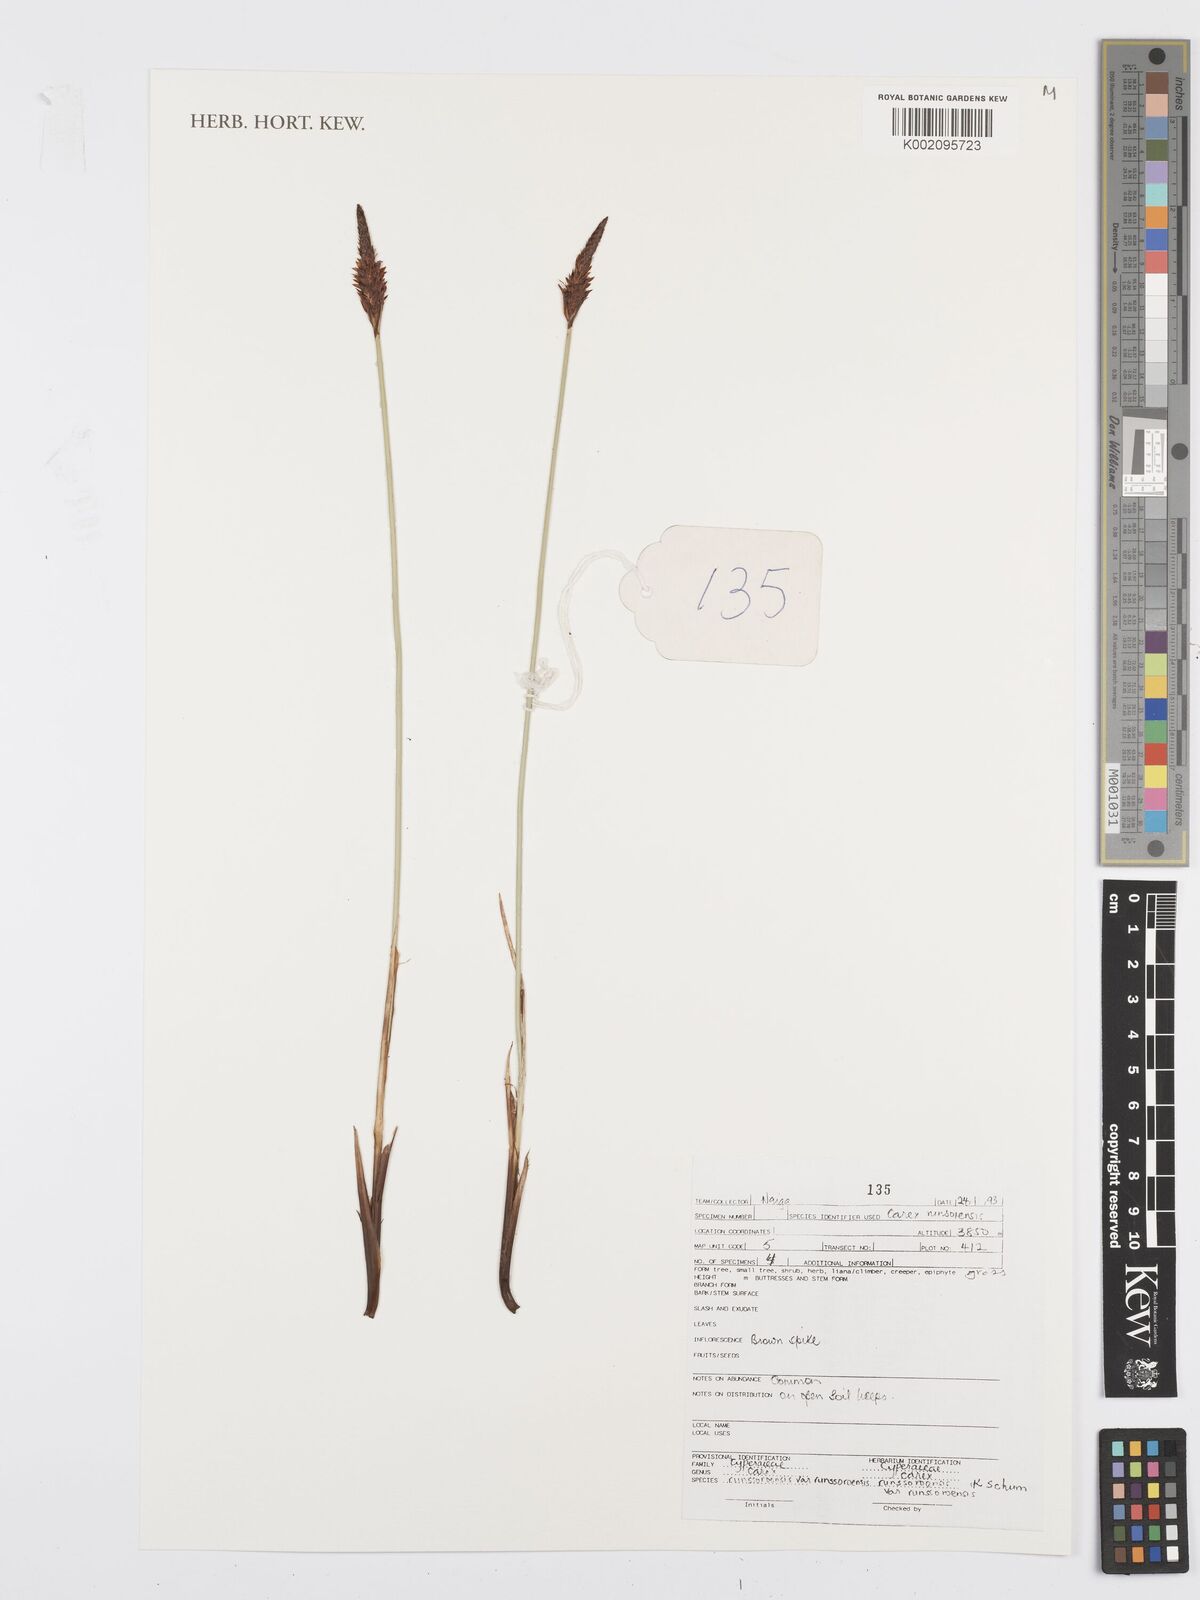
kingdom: Plantae
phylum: Tracheophyta
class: Liliopsida
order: Poales
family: Cyperaceae
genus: Carex
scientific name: Carex runssoroensis
